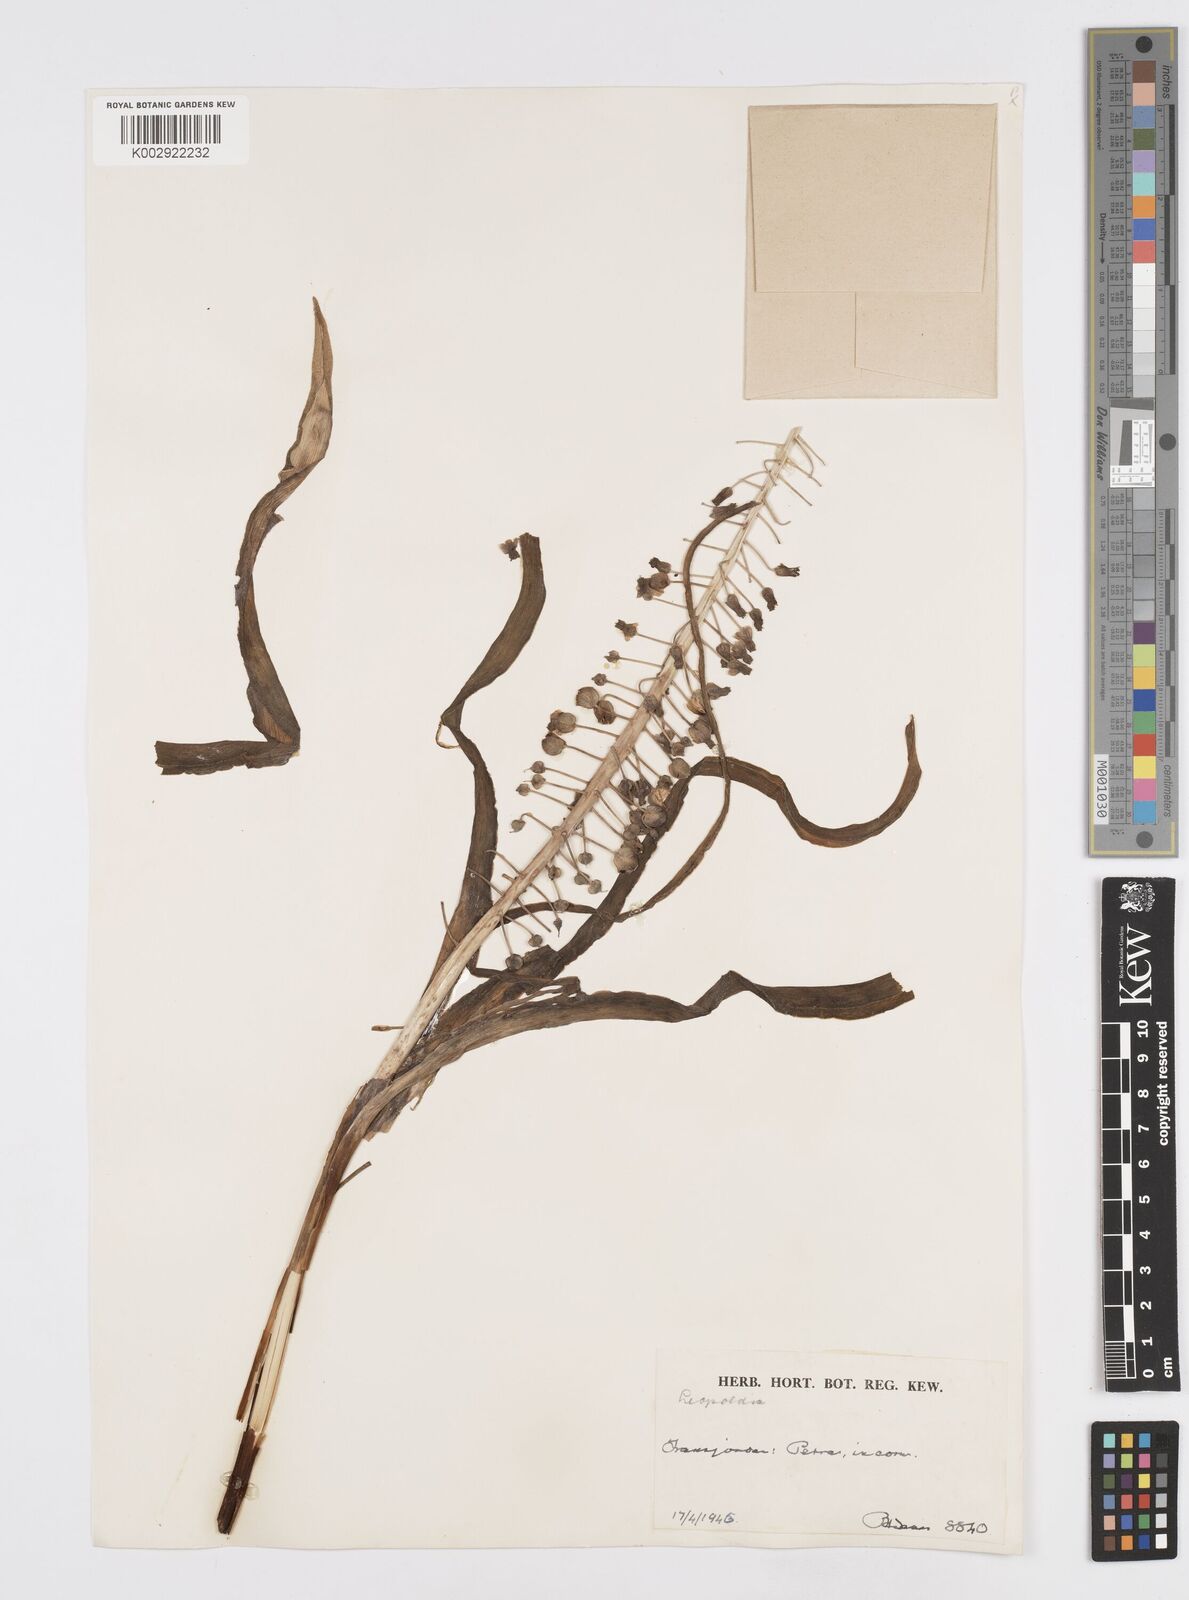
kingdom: Plantae
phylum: Tracheophyta
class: Liliopsida
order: Asparagales
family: Asparagaceae
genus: Muscari
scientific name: Muscari comosum
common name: Tassel hyacinth
